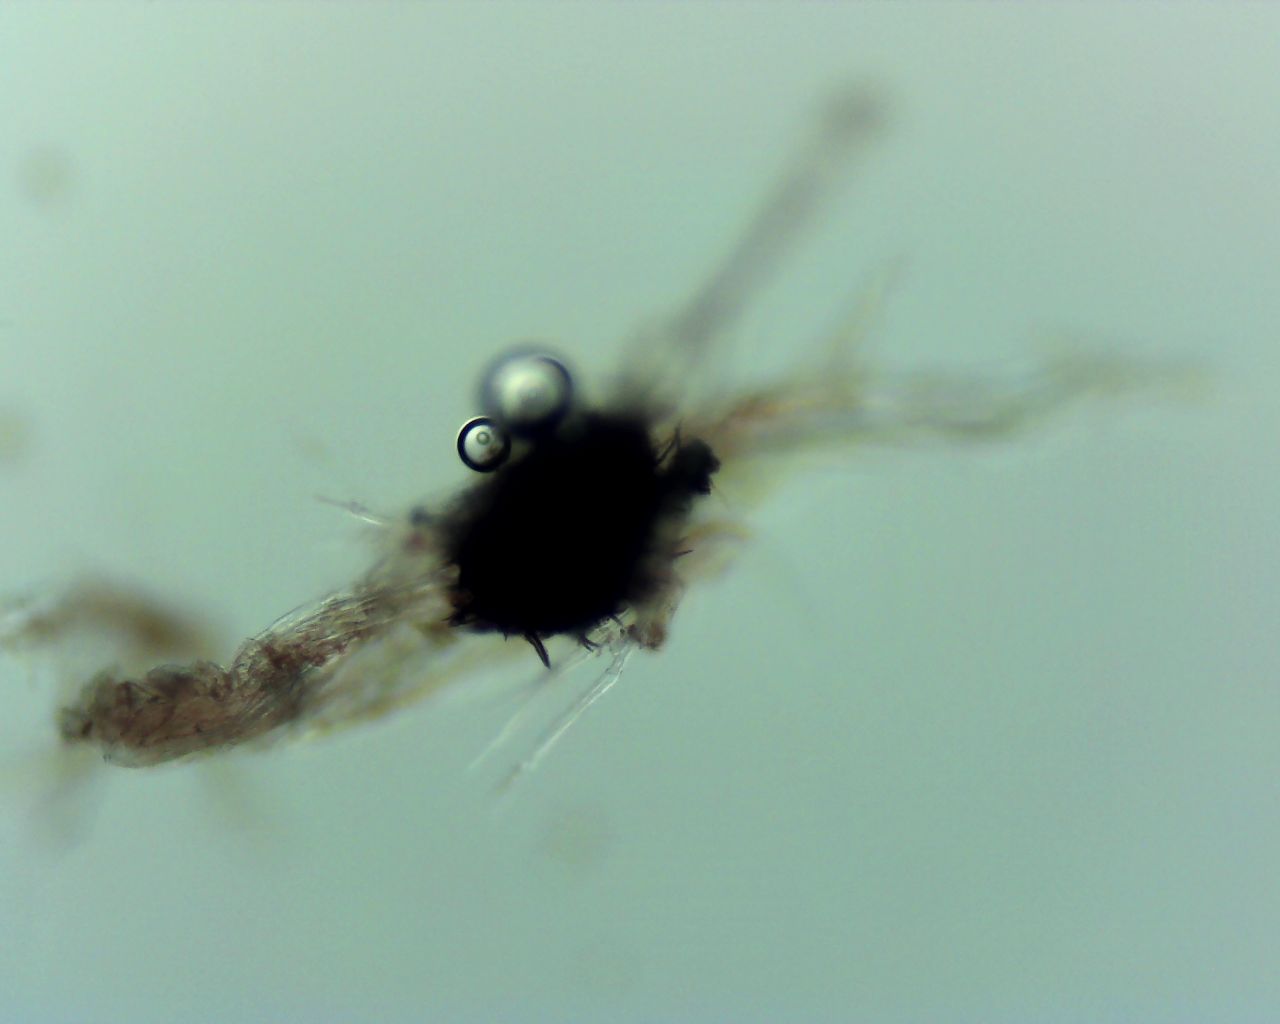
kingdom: Fungi
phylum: Ascomycota
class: Eurotiomycetes
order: Chaetothyriales
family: Herpotrichiellaceae
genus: Capronia
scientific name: Capronia
